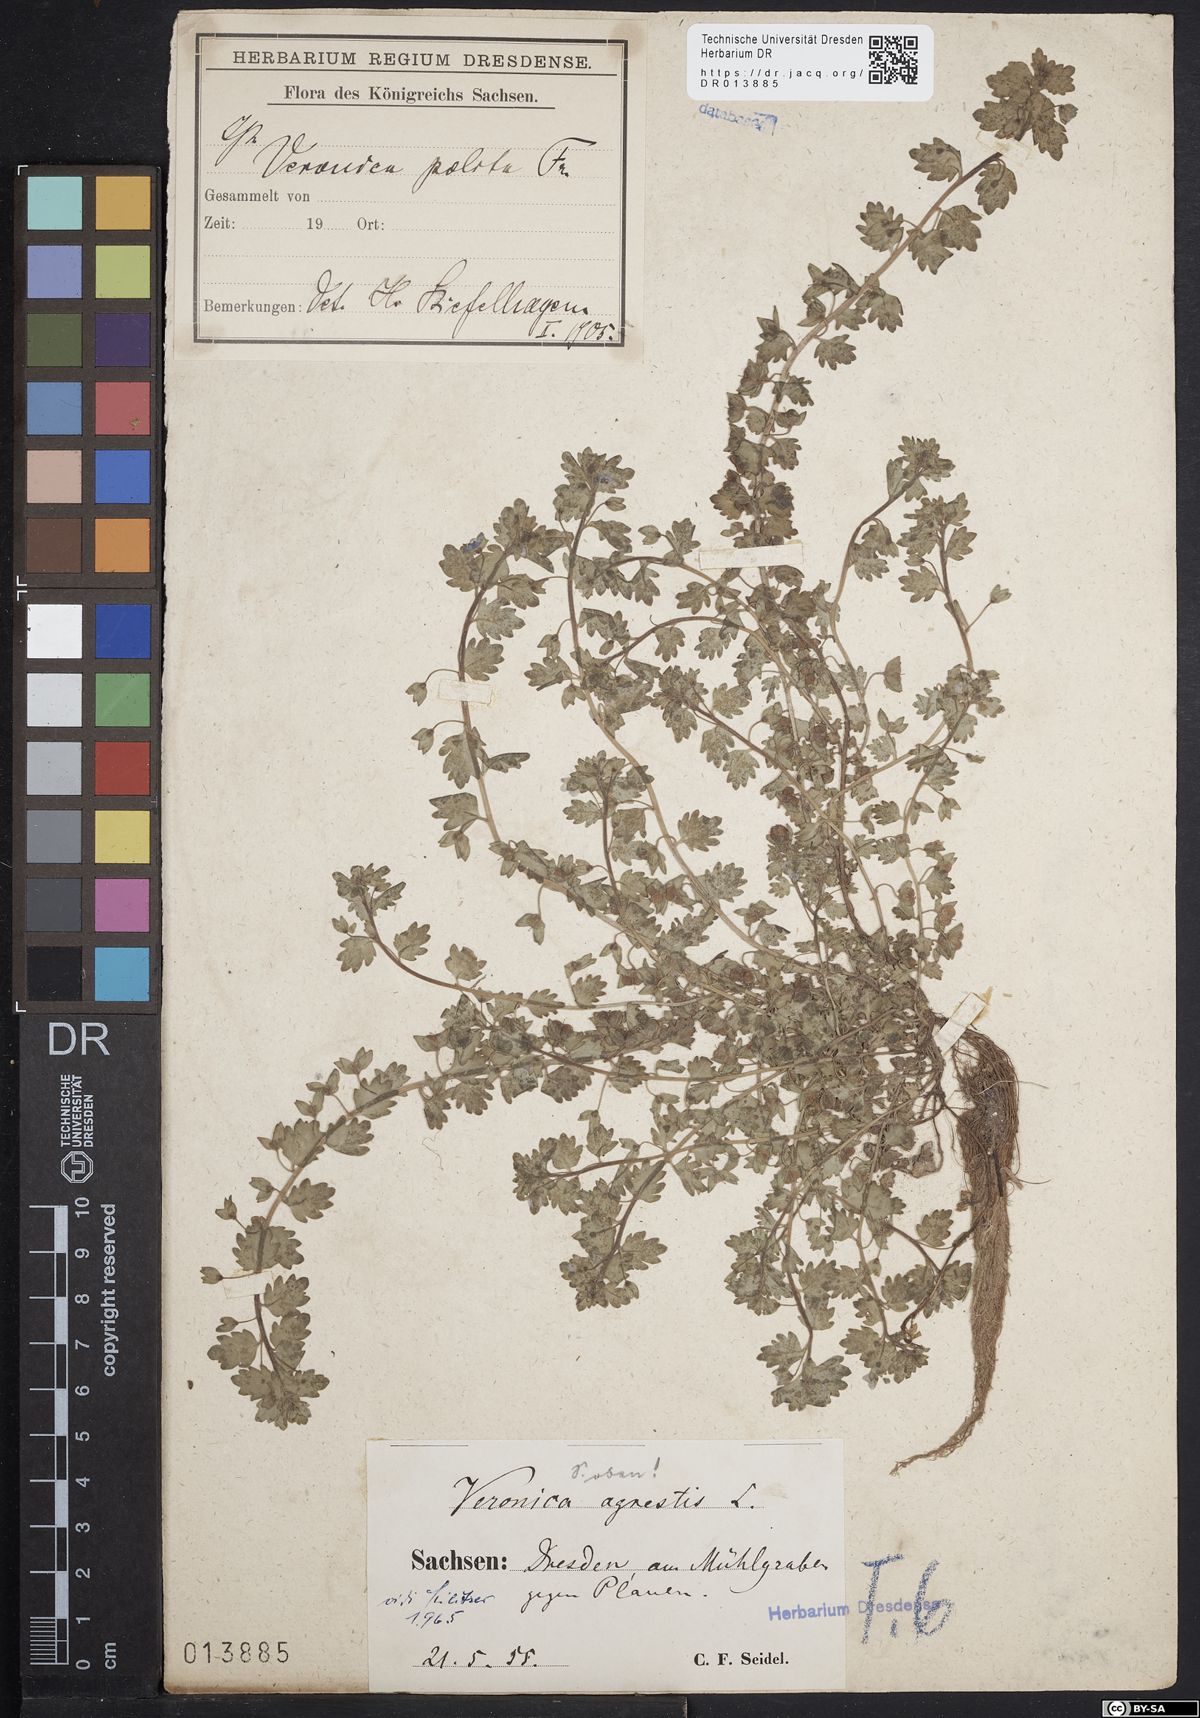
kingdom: Plantae
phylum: Tracheophyta
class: Magnoliopsida
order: Lamiales
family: Plantaginaceae
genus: Veronica
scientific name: Veronica polita
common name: Grey field-speedwell
